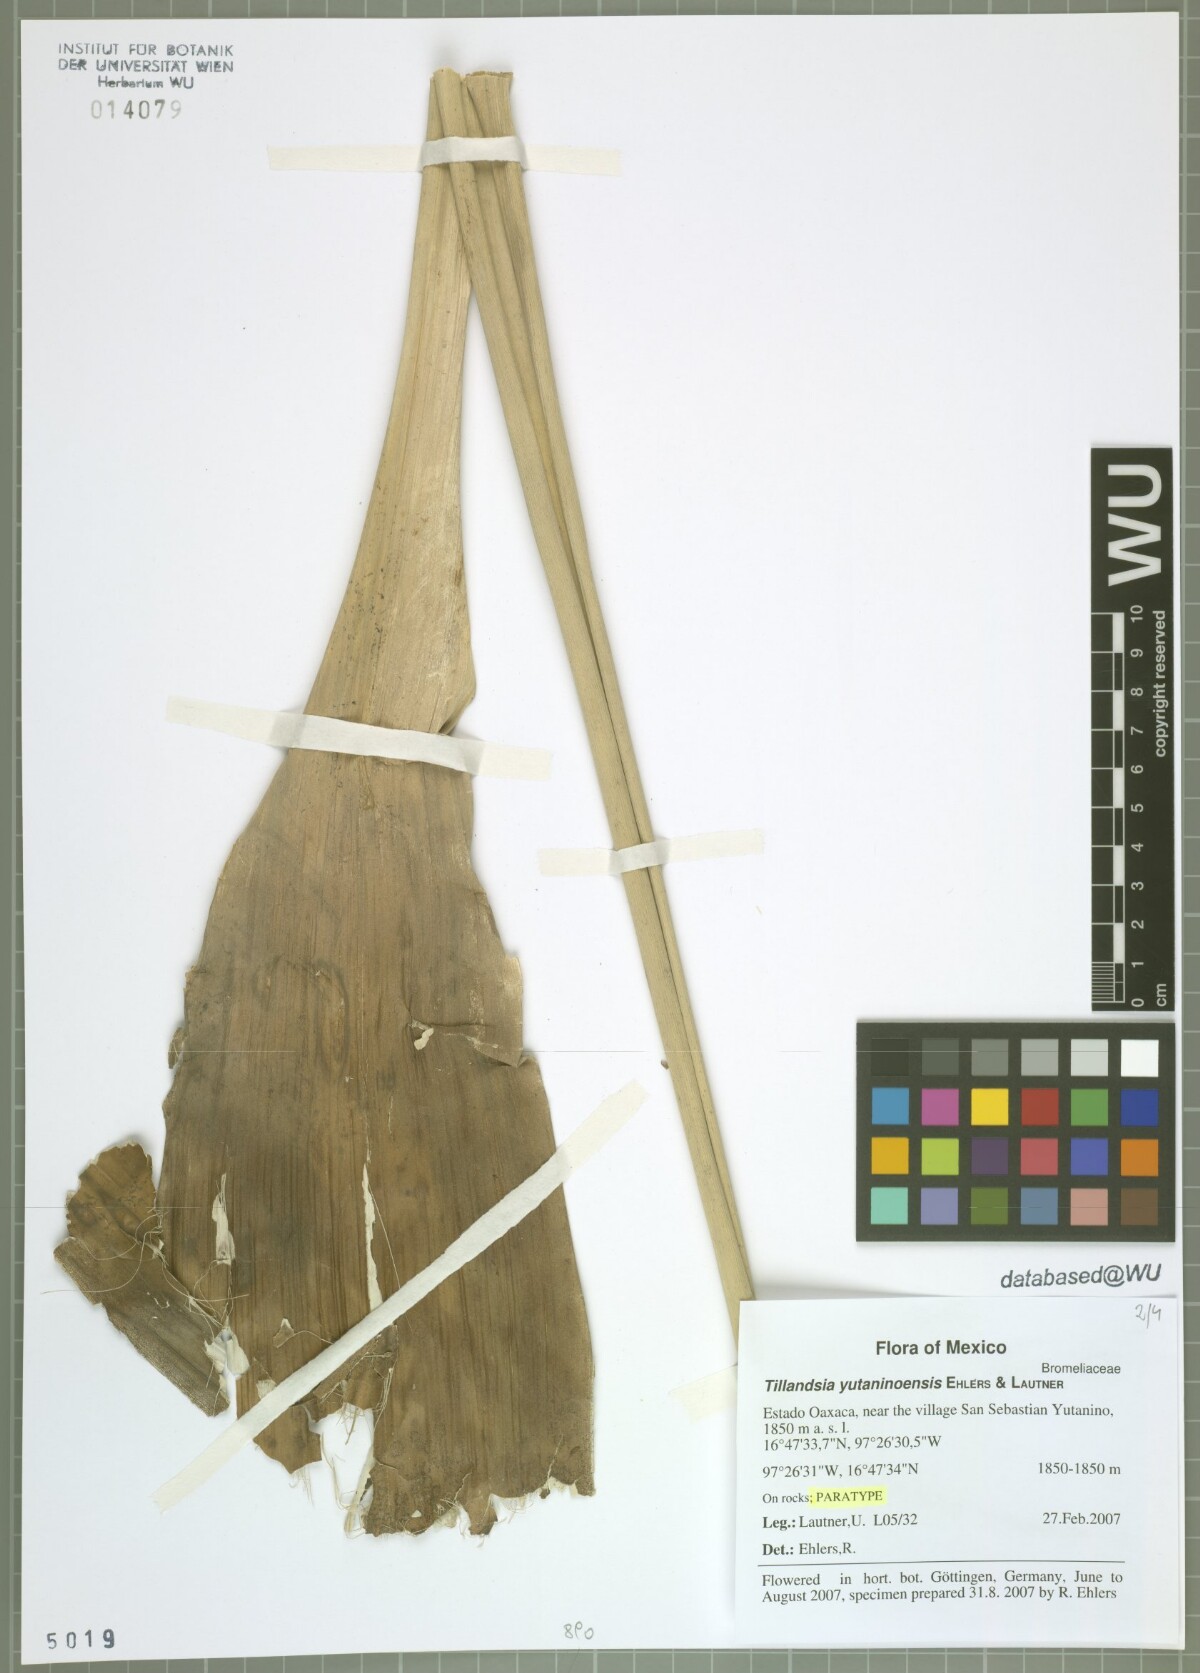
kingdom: Plantae
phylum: Tracheophyta
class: Liliopsida
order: Poales
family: Bromeliaceae
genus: Tillandsia
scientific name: Tillandsia yutaninoensis
